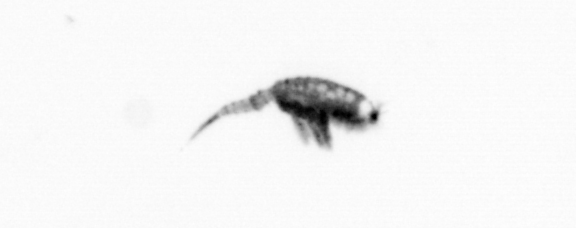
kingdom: Animalia
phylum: Arthropoda
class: Copepoda
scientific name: Copepoda
